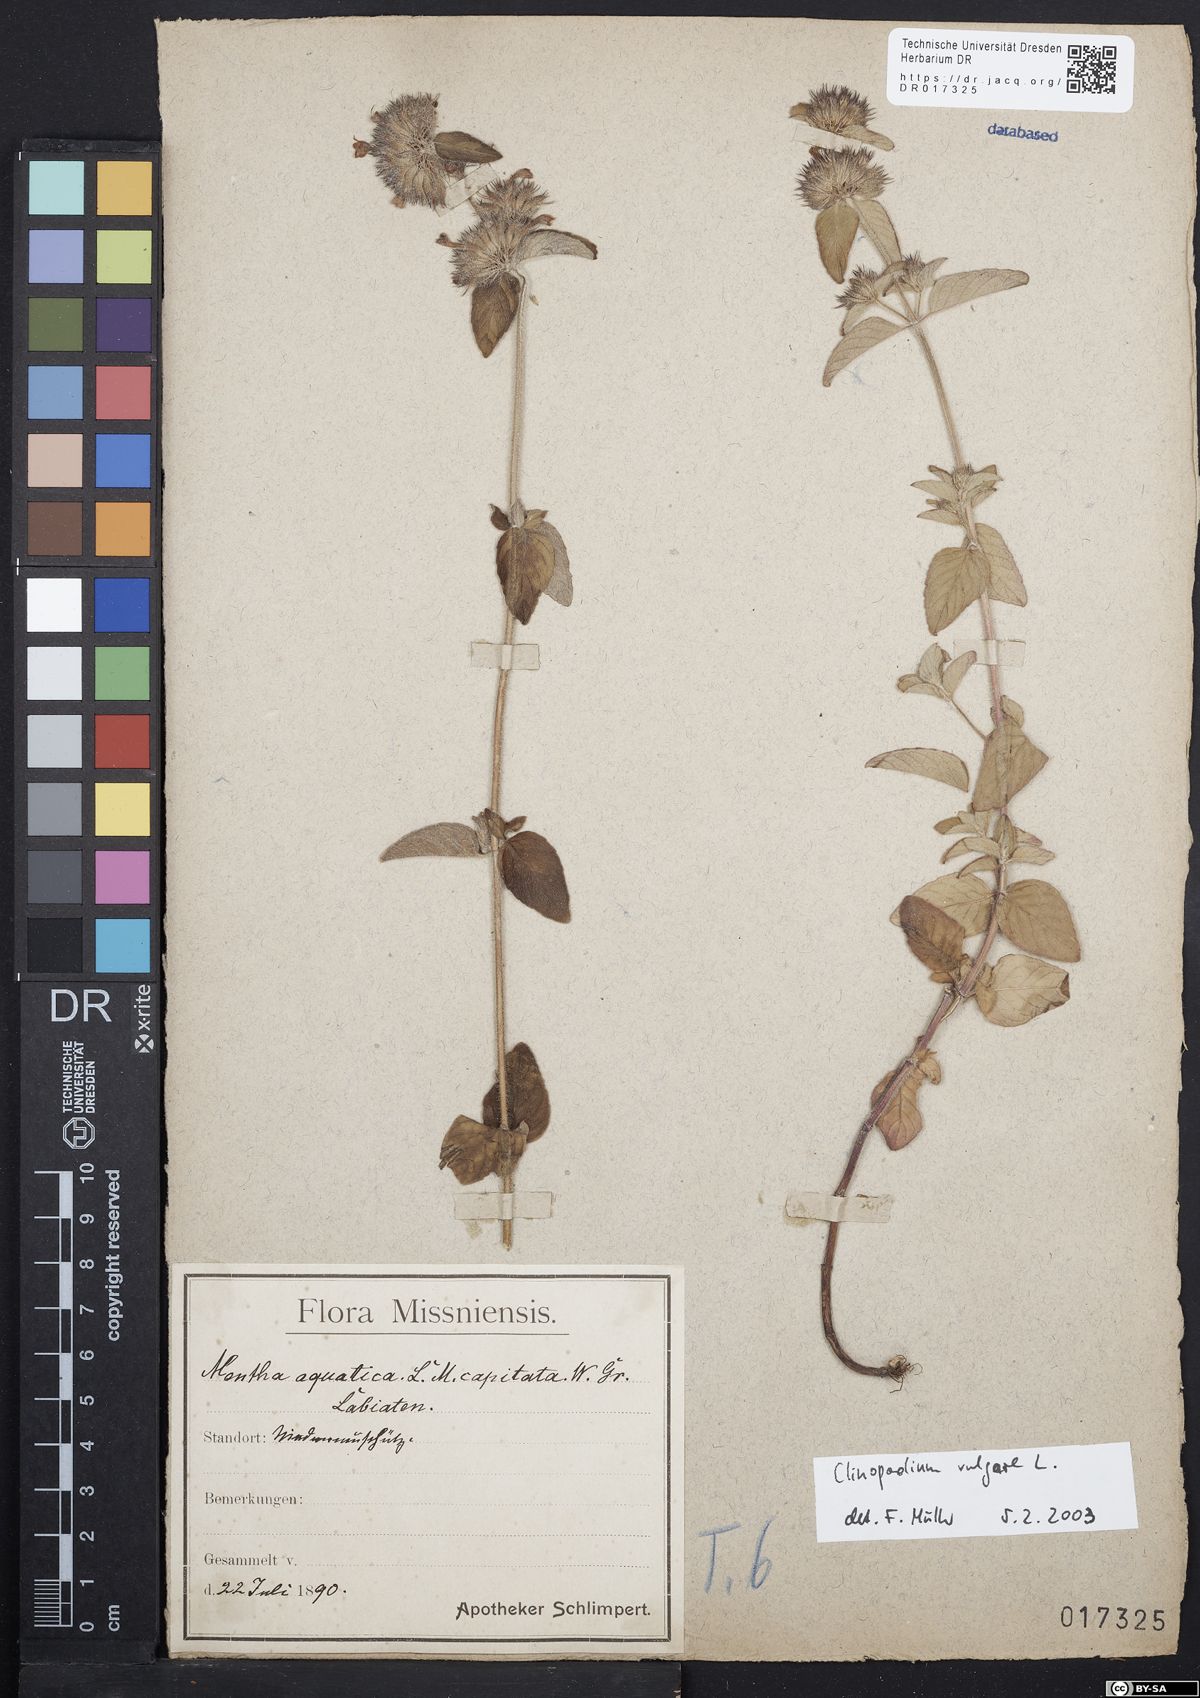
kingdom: Plantae
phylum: Tracheophyta
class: Magnoliopsida
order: Lamiales
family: Lamiaceae
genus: Clinopodium
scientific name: Clinopodium vulgare
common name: Wild basil
